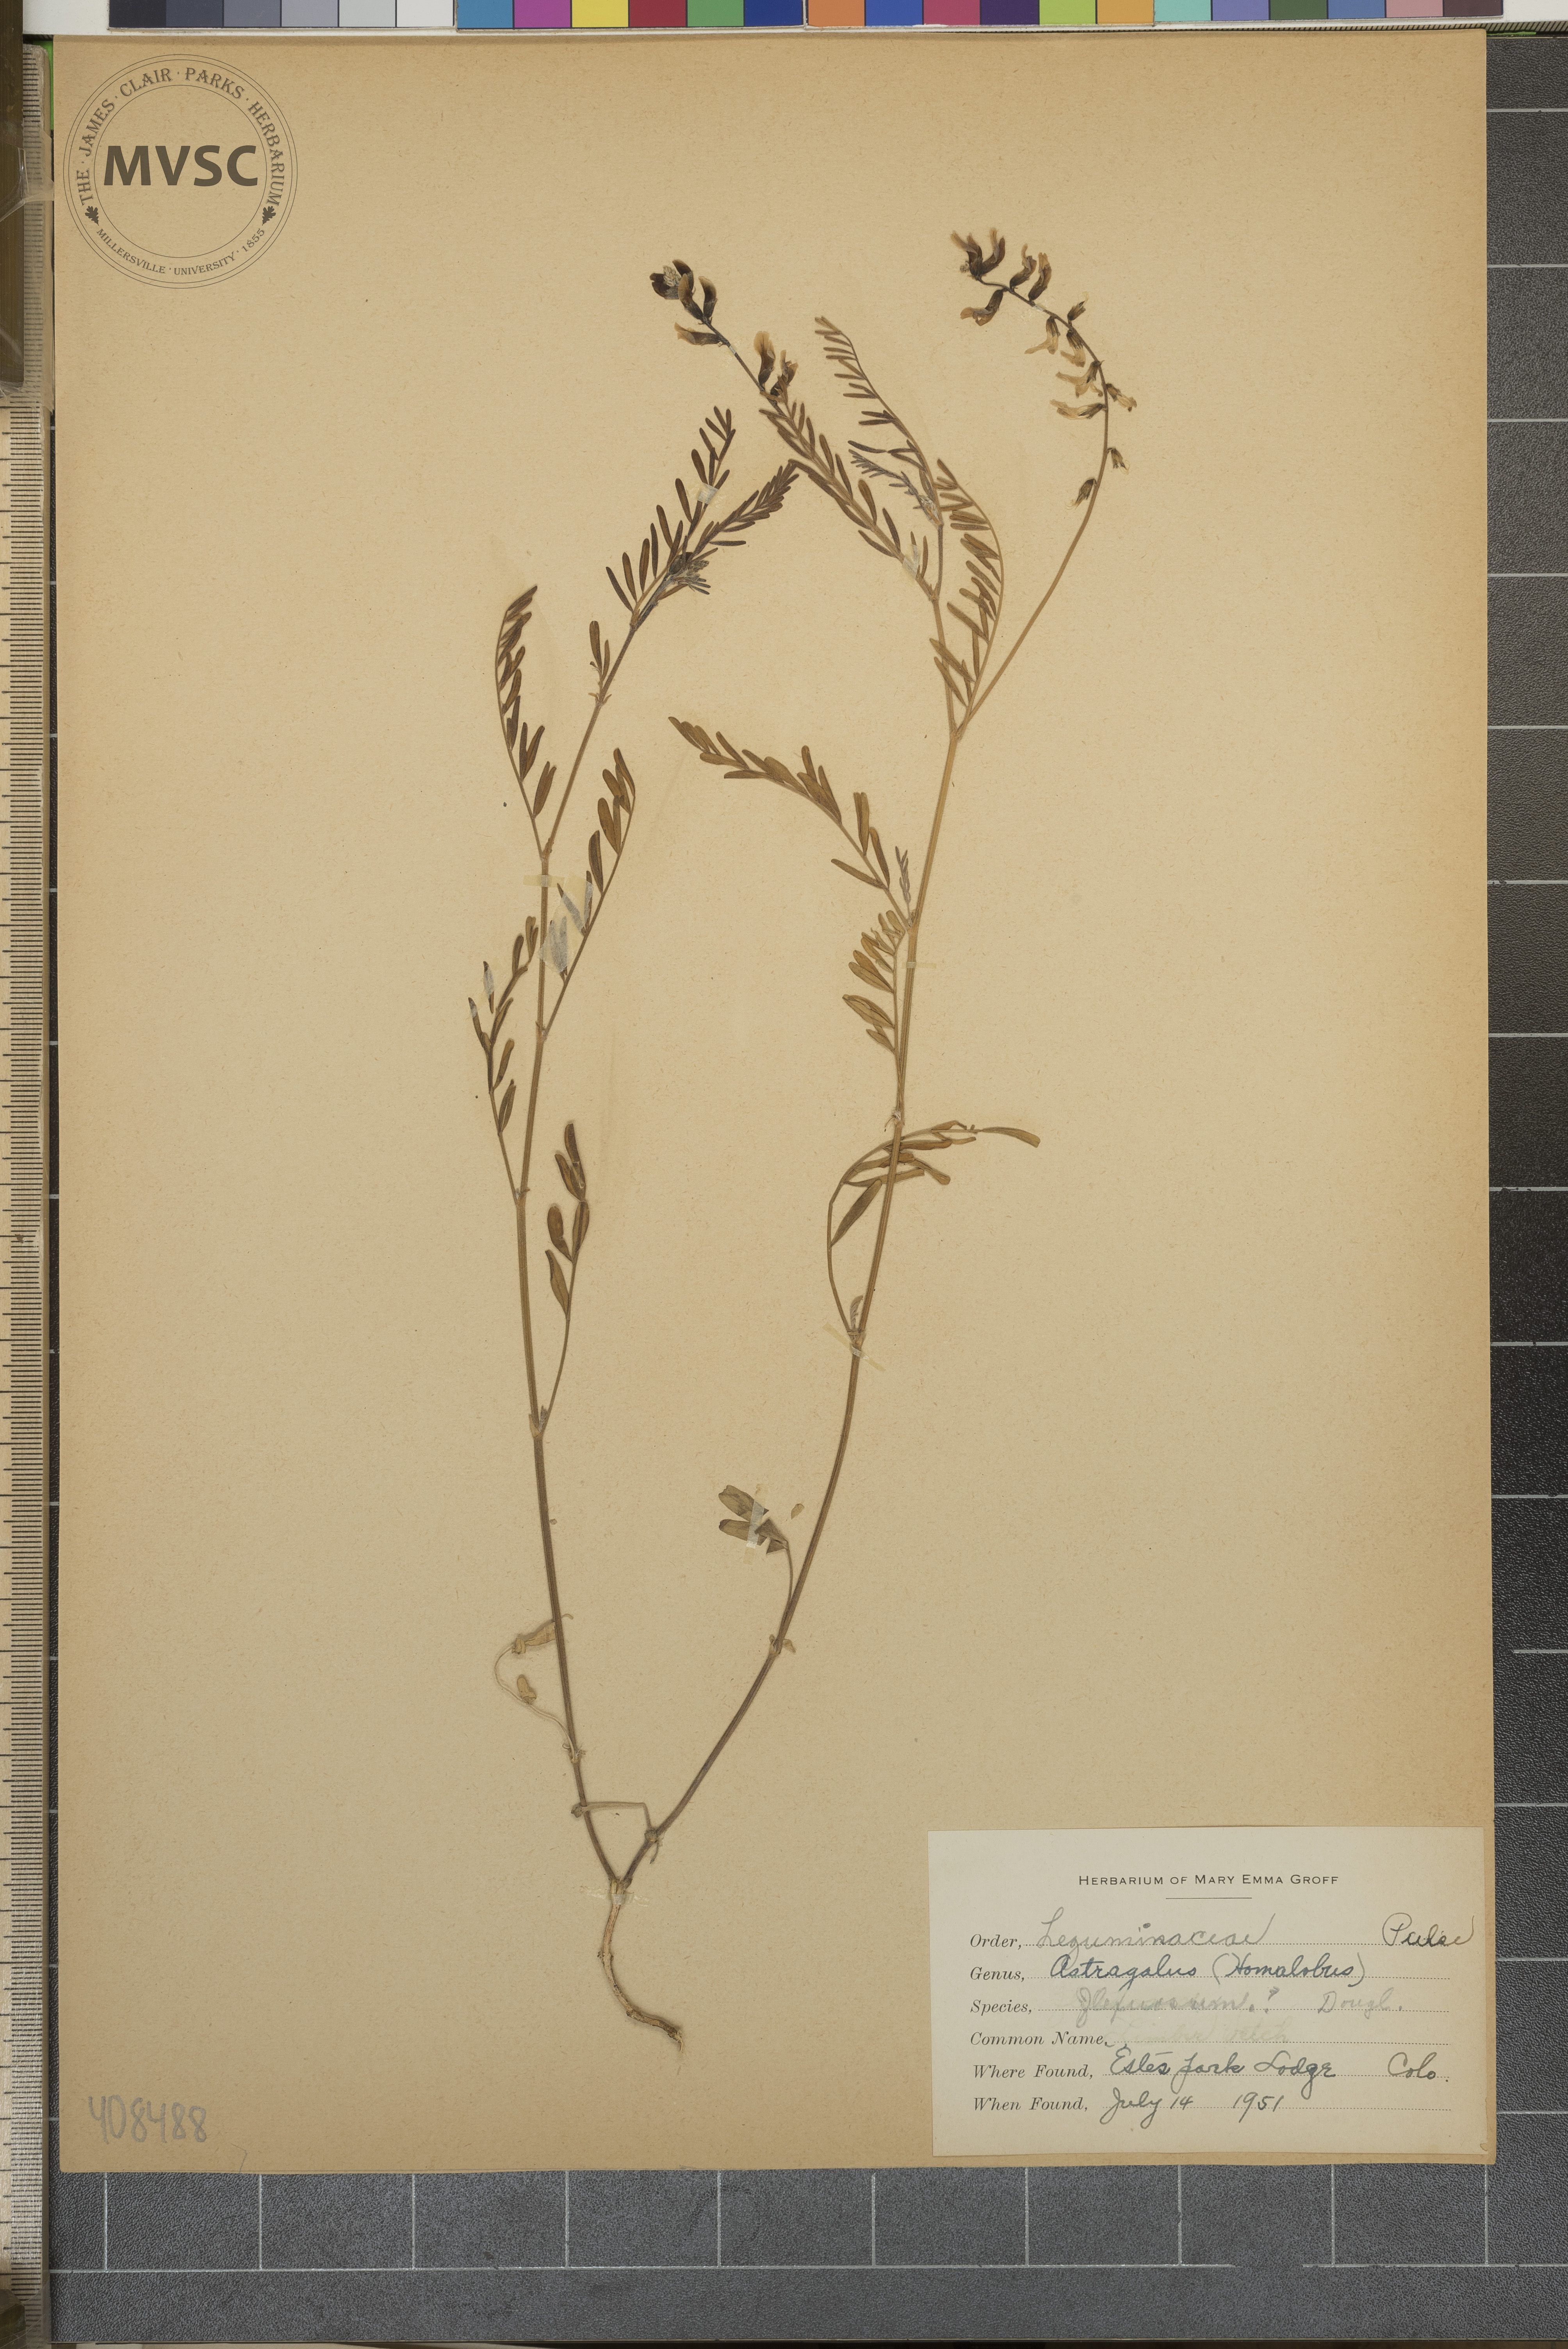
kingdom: Plantae
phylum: Tracheophyta
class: Magnoliopsida
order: Fabales
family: Fabaceae
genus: Astragalus
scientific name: Astragalus flexuosus
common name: Pliant milk-vetch
